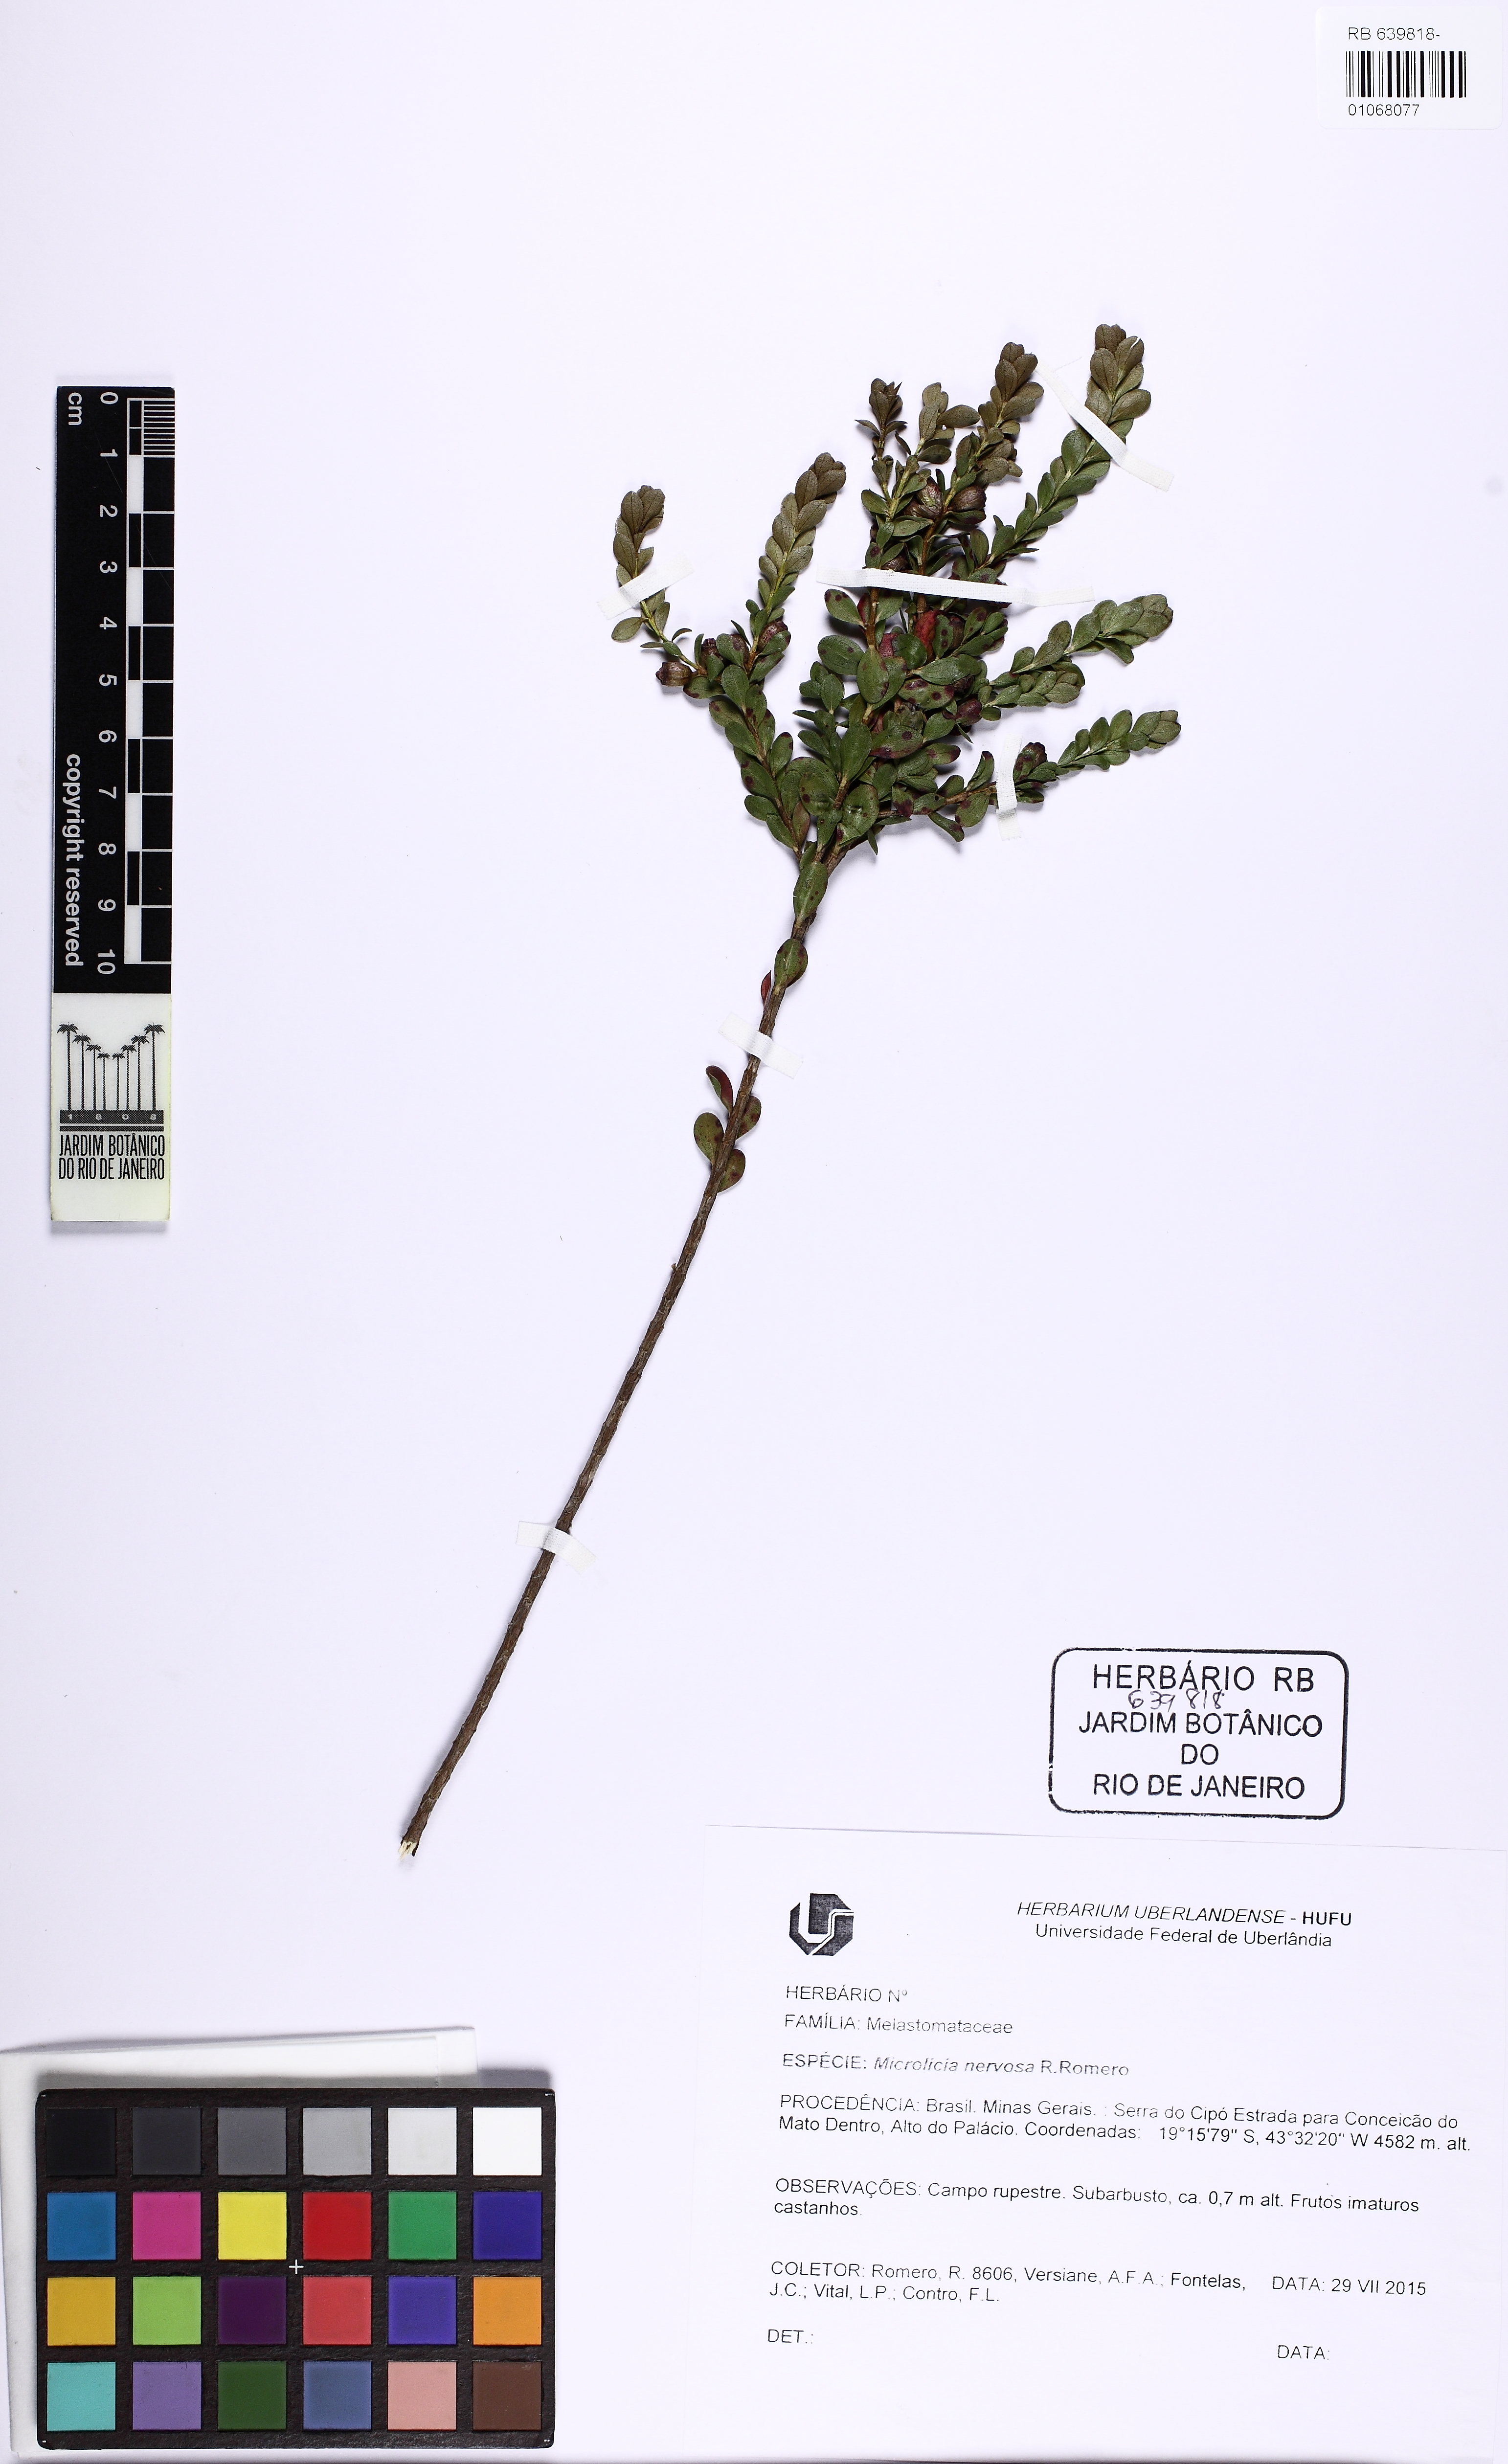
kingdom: Plantae
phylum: Tracheophyta
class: Magnoliopsida
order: Myrtales
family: Melastomataceae
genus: Microlicia
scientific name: Microlicia karinae
